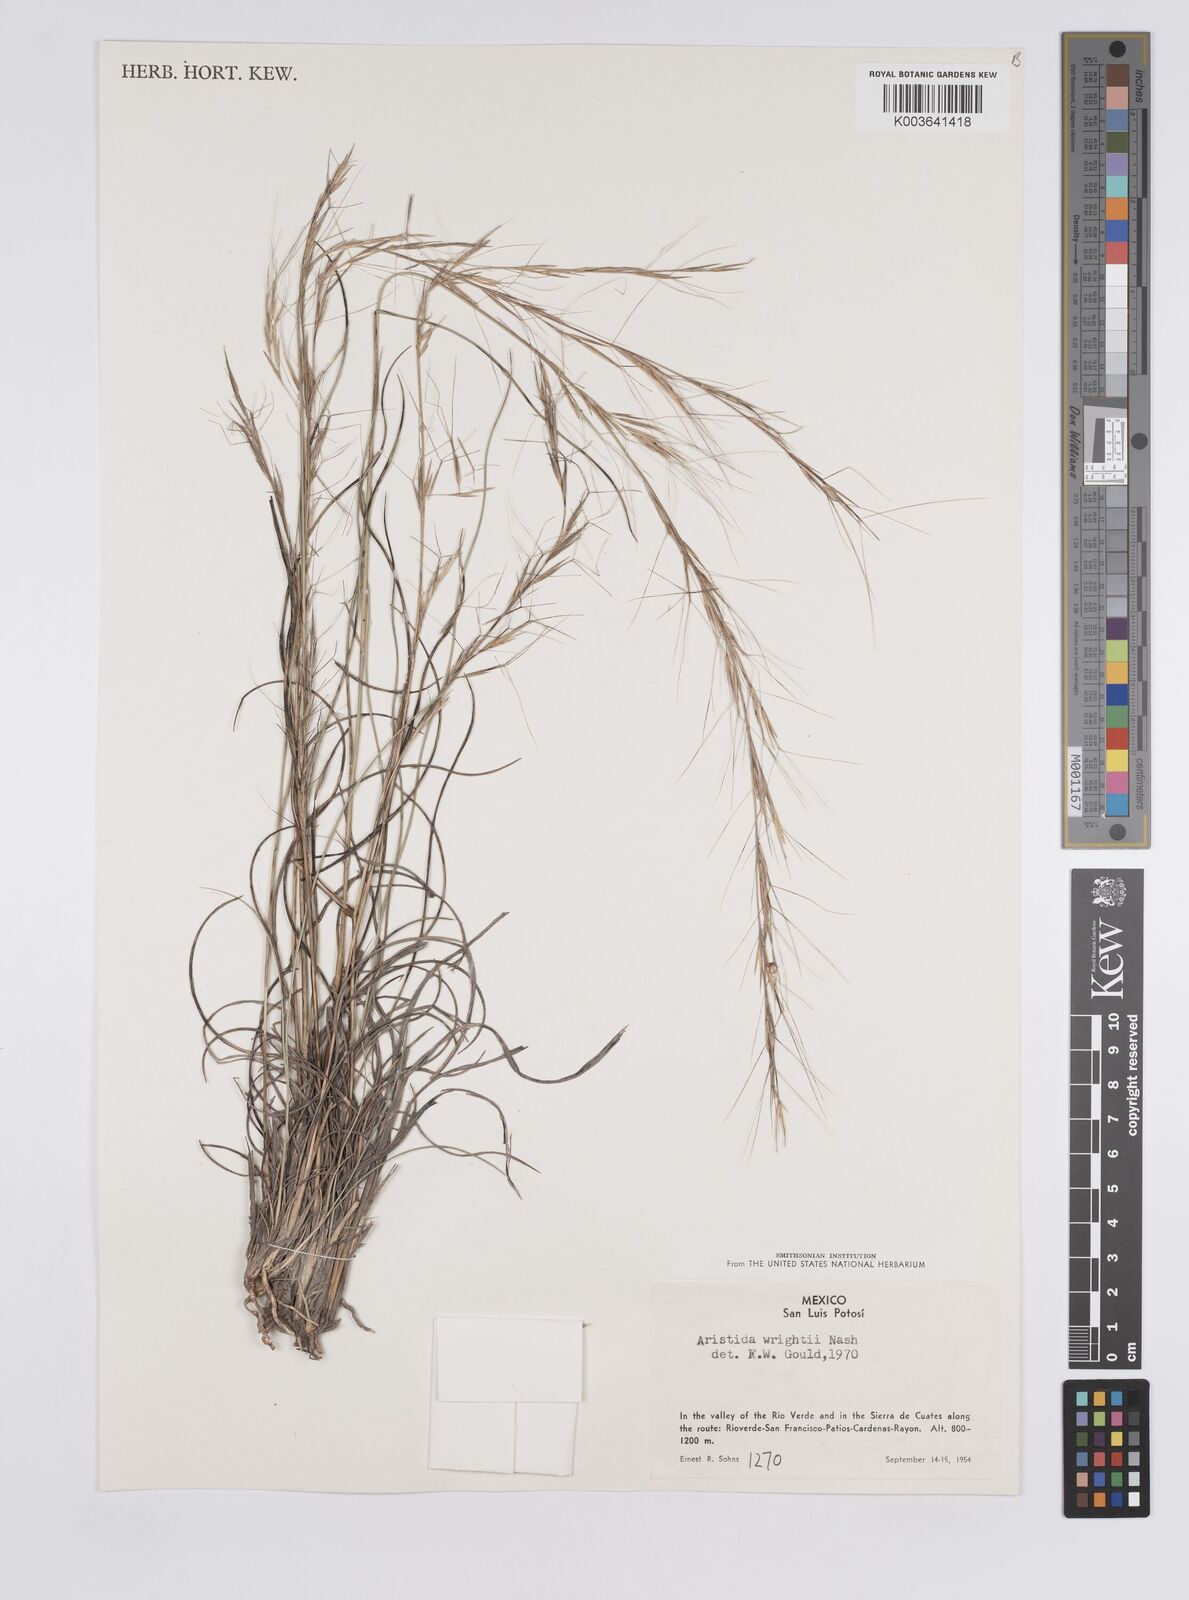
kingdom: Plantae
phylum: Tracheophyta
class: Liliopsida
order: Poales
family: Poaceae
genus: Aristida
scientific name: Aristida purpurea
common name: Purple threeawn
